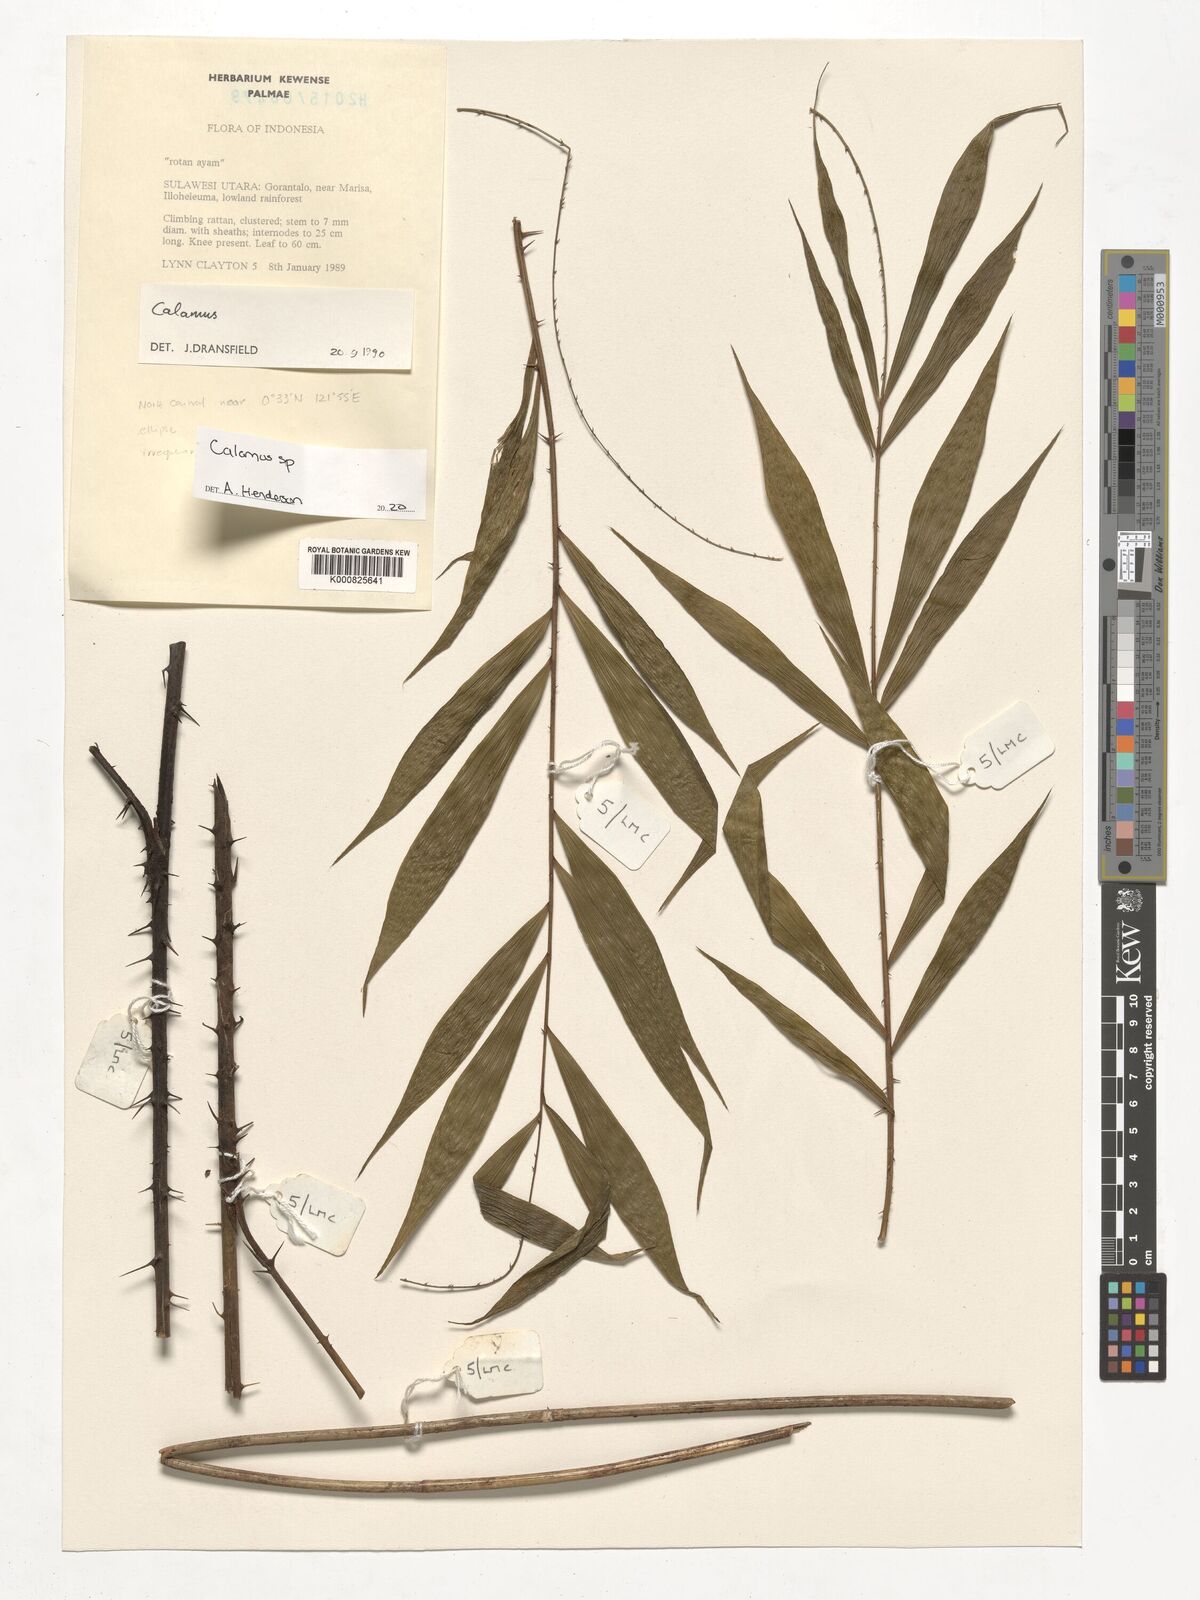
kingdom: Plantae
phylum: Tracheophyta
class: Liliopsida
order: Arecales
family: Arecaceae
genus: Calamus
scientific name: Calamus
